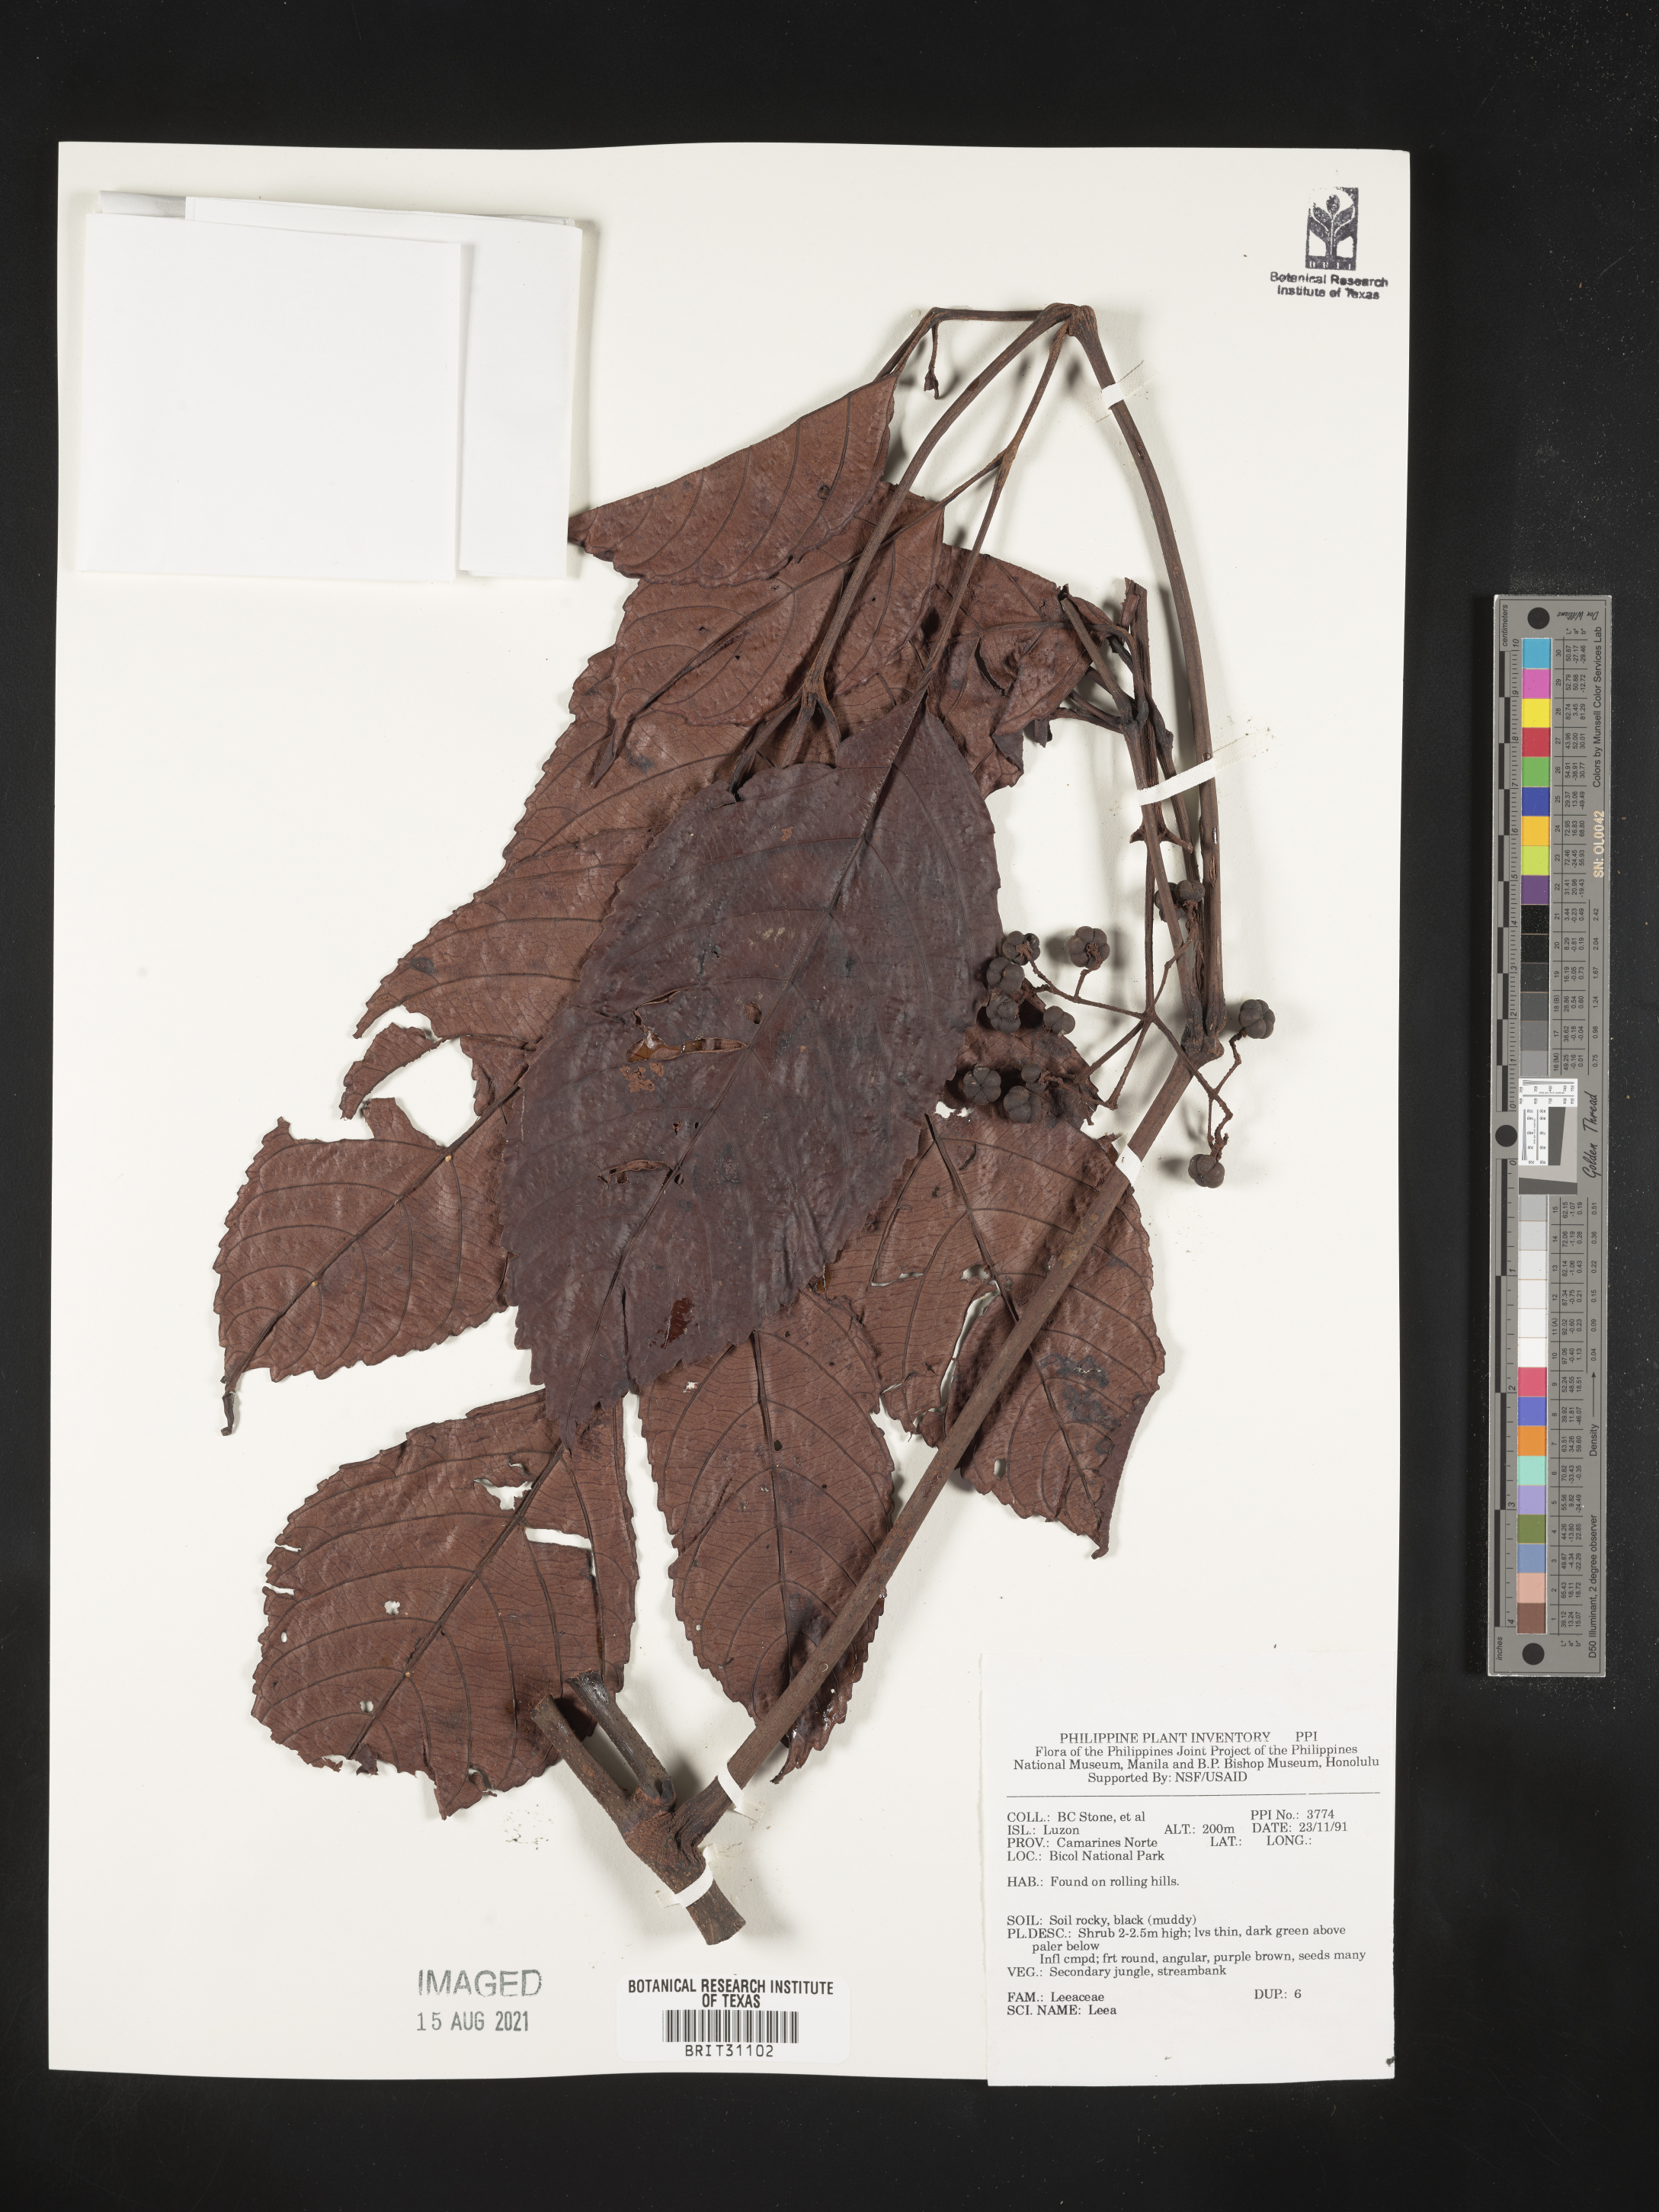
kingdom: Plantae
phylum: Tracheophyta
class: Magnoliopsida
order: Vitales
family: Vitaceae
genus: Leea
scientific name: Leea
